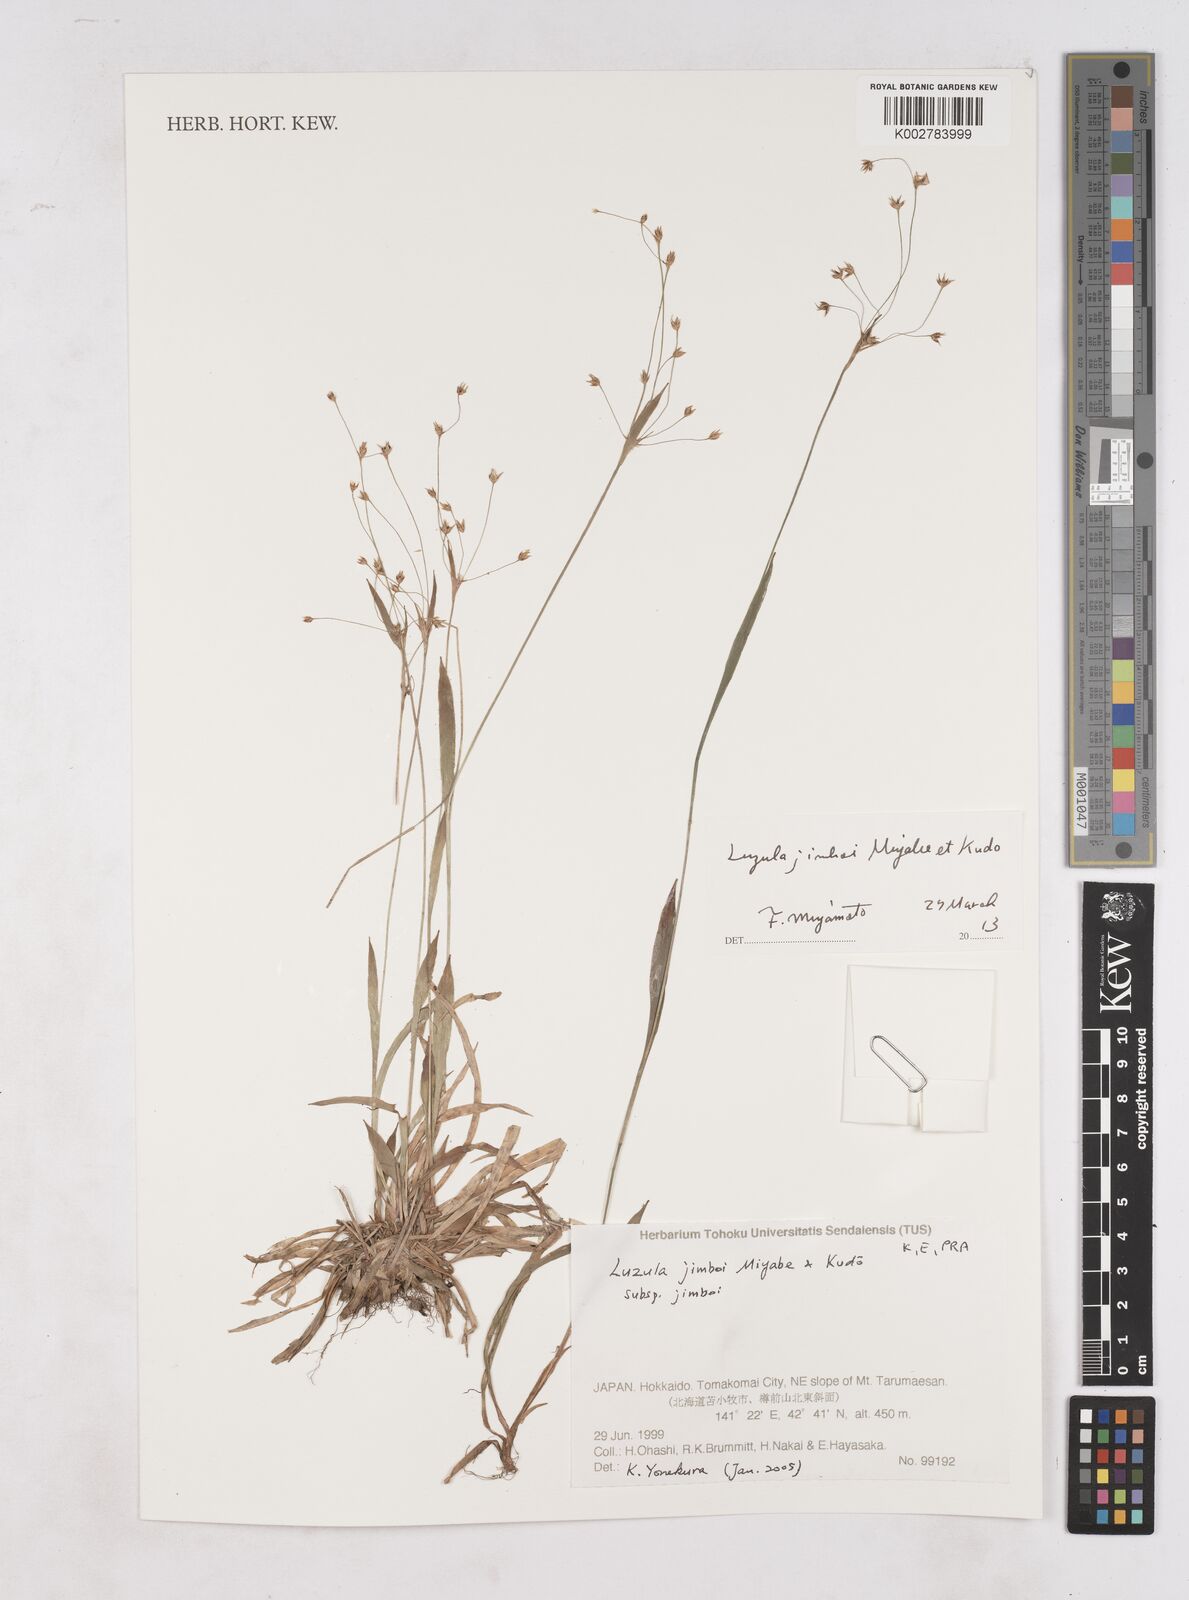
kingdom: Plantae
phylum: Tracheophyta
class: Liliopsida
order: Poales
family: Juncaceae
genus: Luzula
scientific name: Luzula jimboi
